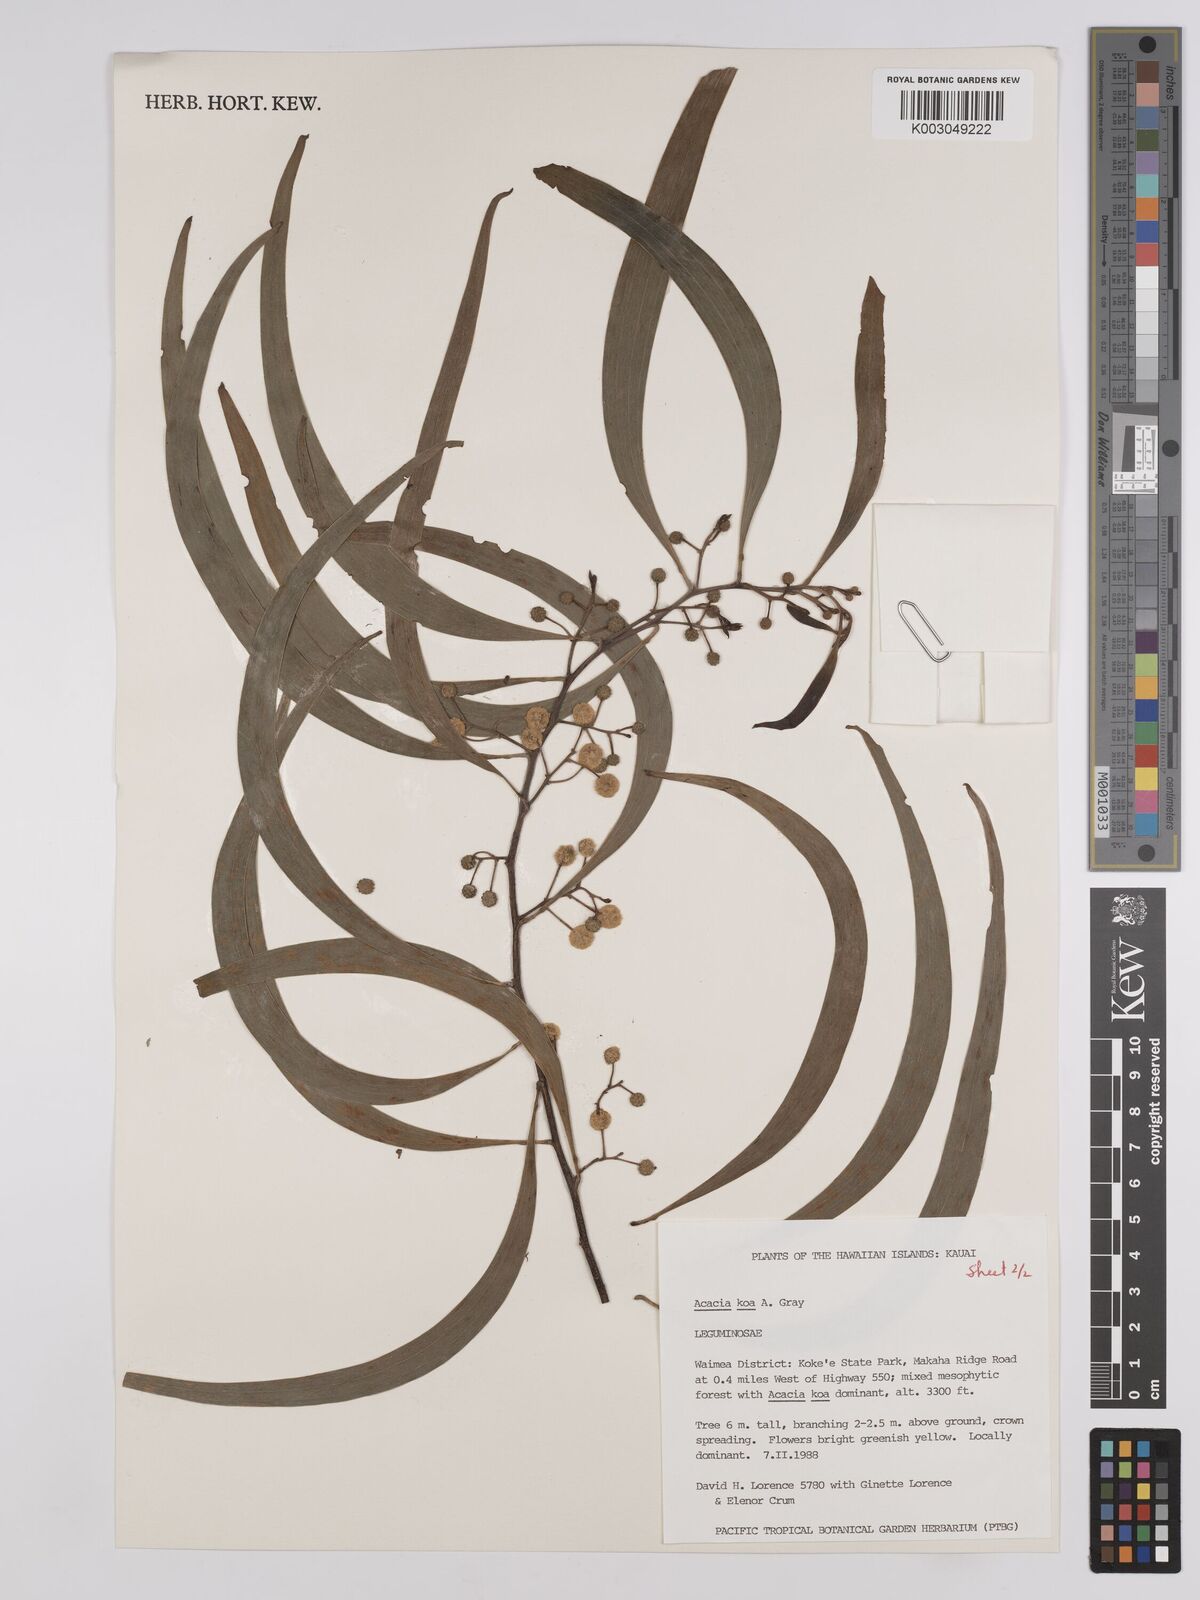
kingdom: Plantae
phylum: Tracheophyta
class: Magnoliopsida
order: Fabales
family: Fabaceae
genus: Acacia
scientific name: Acacia koa
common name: Gray koa
